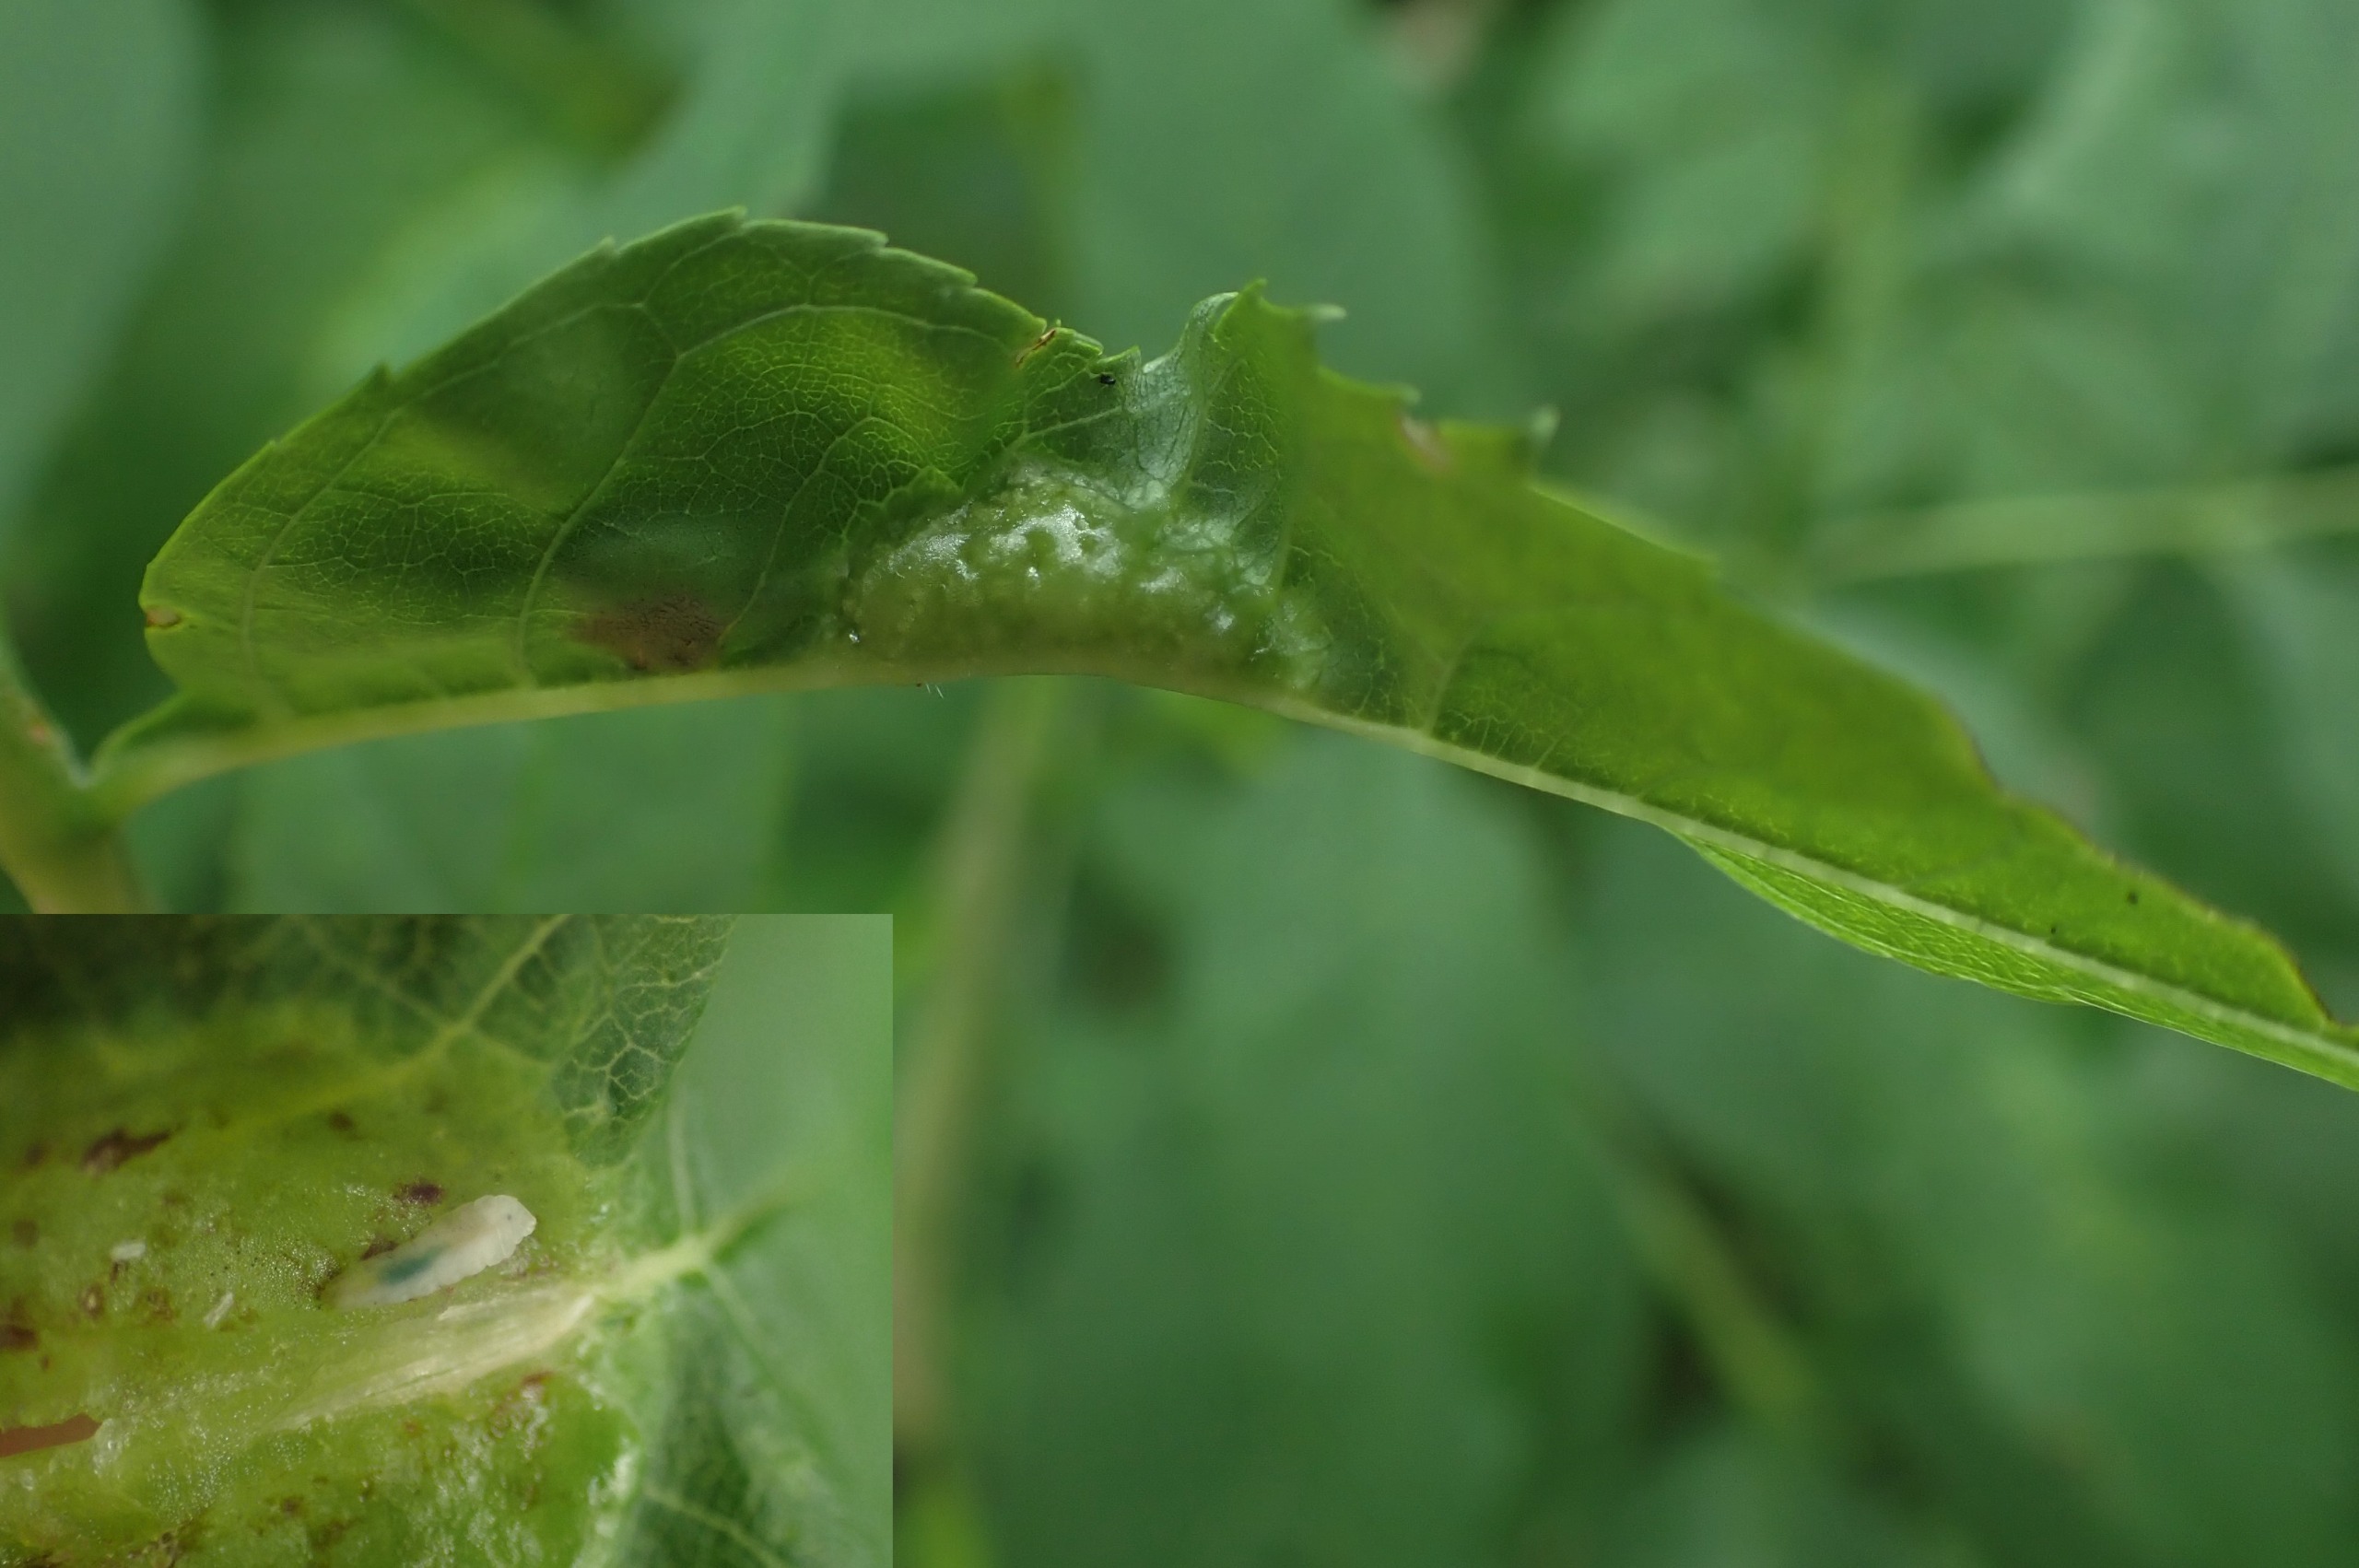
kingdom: Animalia
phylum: Arthropoda
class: Insecta
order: Diptera
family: Cecidomyiidae
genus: Dasineura
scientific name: Dasineura acrophila
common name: Hvid askebladgalmyg
